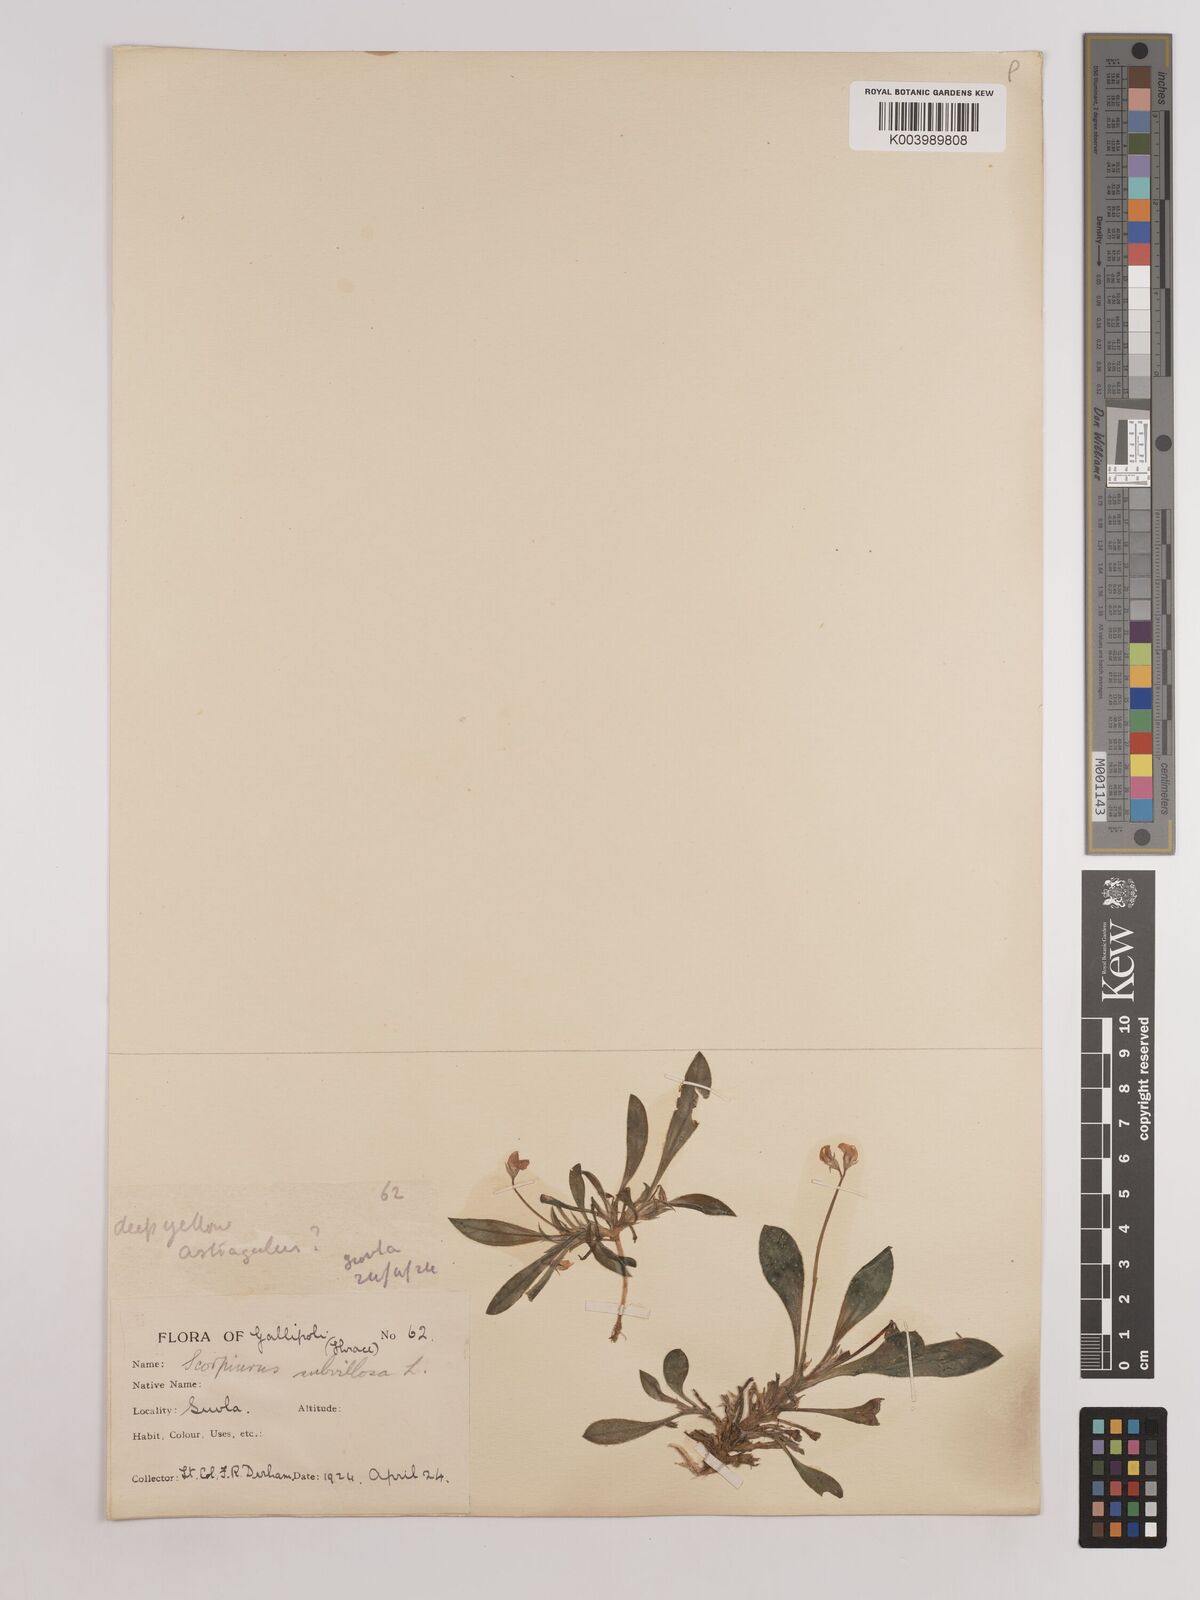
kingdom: Plantae
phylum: Tracheophyta
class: Magnoliopsida
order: Fabales
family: Fabaceae
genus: Scorpiurus
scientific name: Scorpiurus muricatus
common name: Caterpillar-plant
